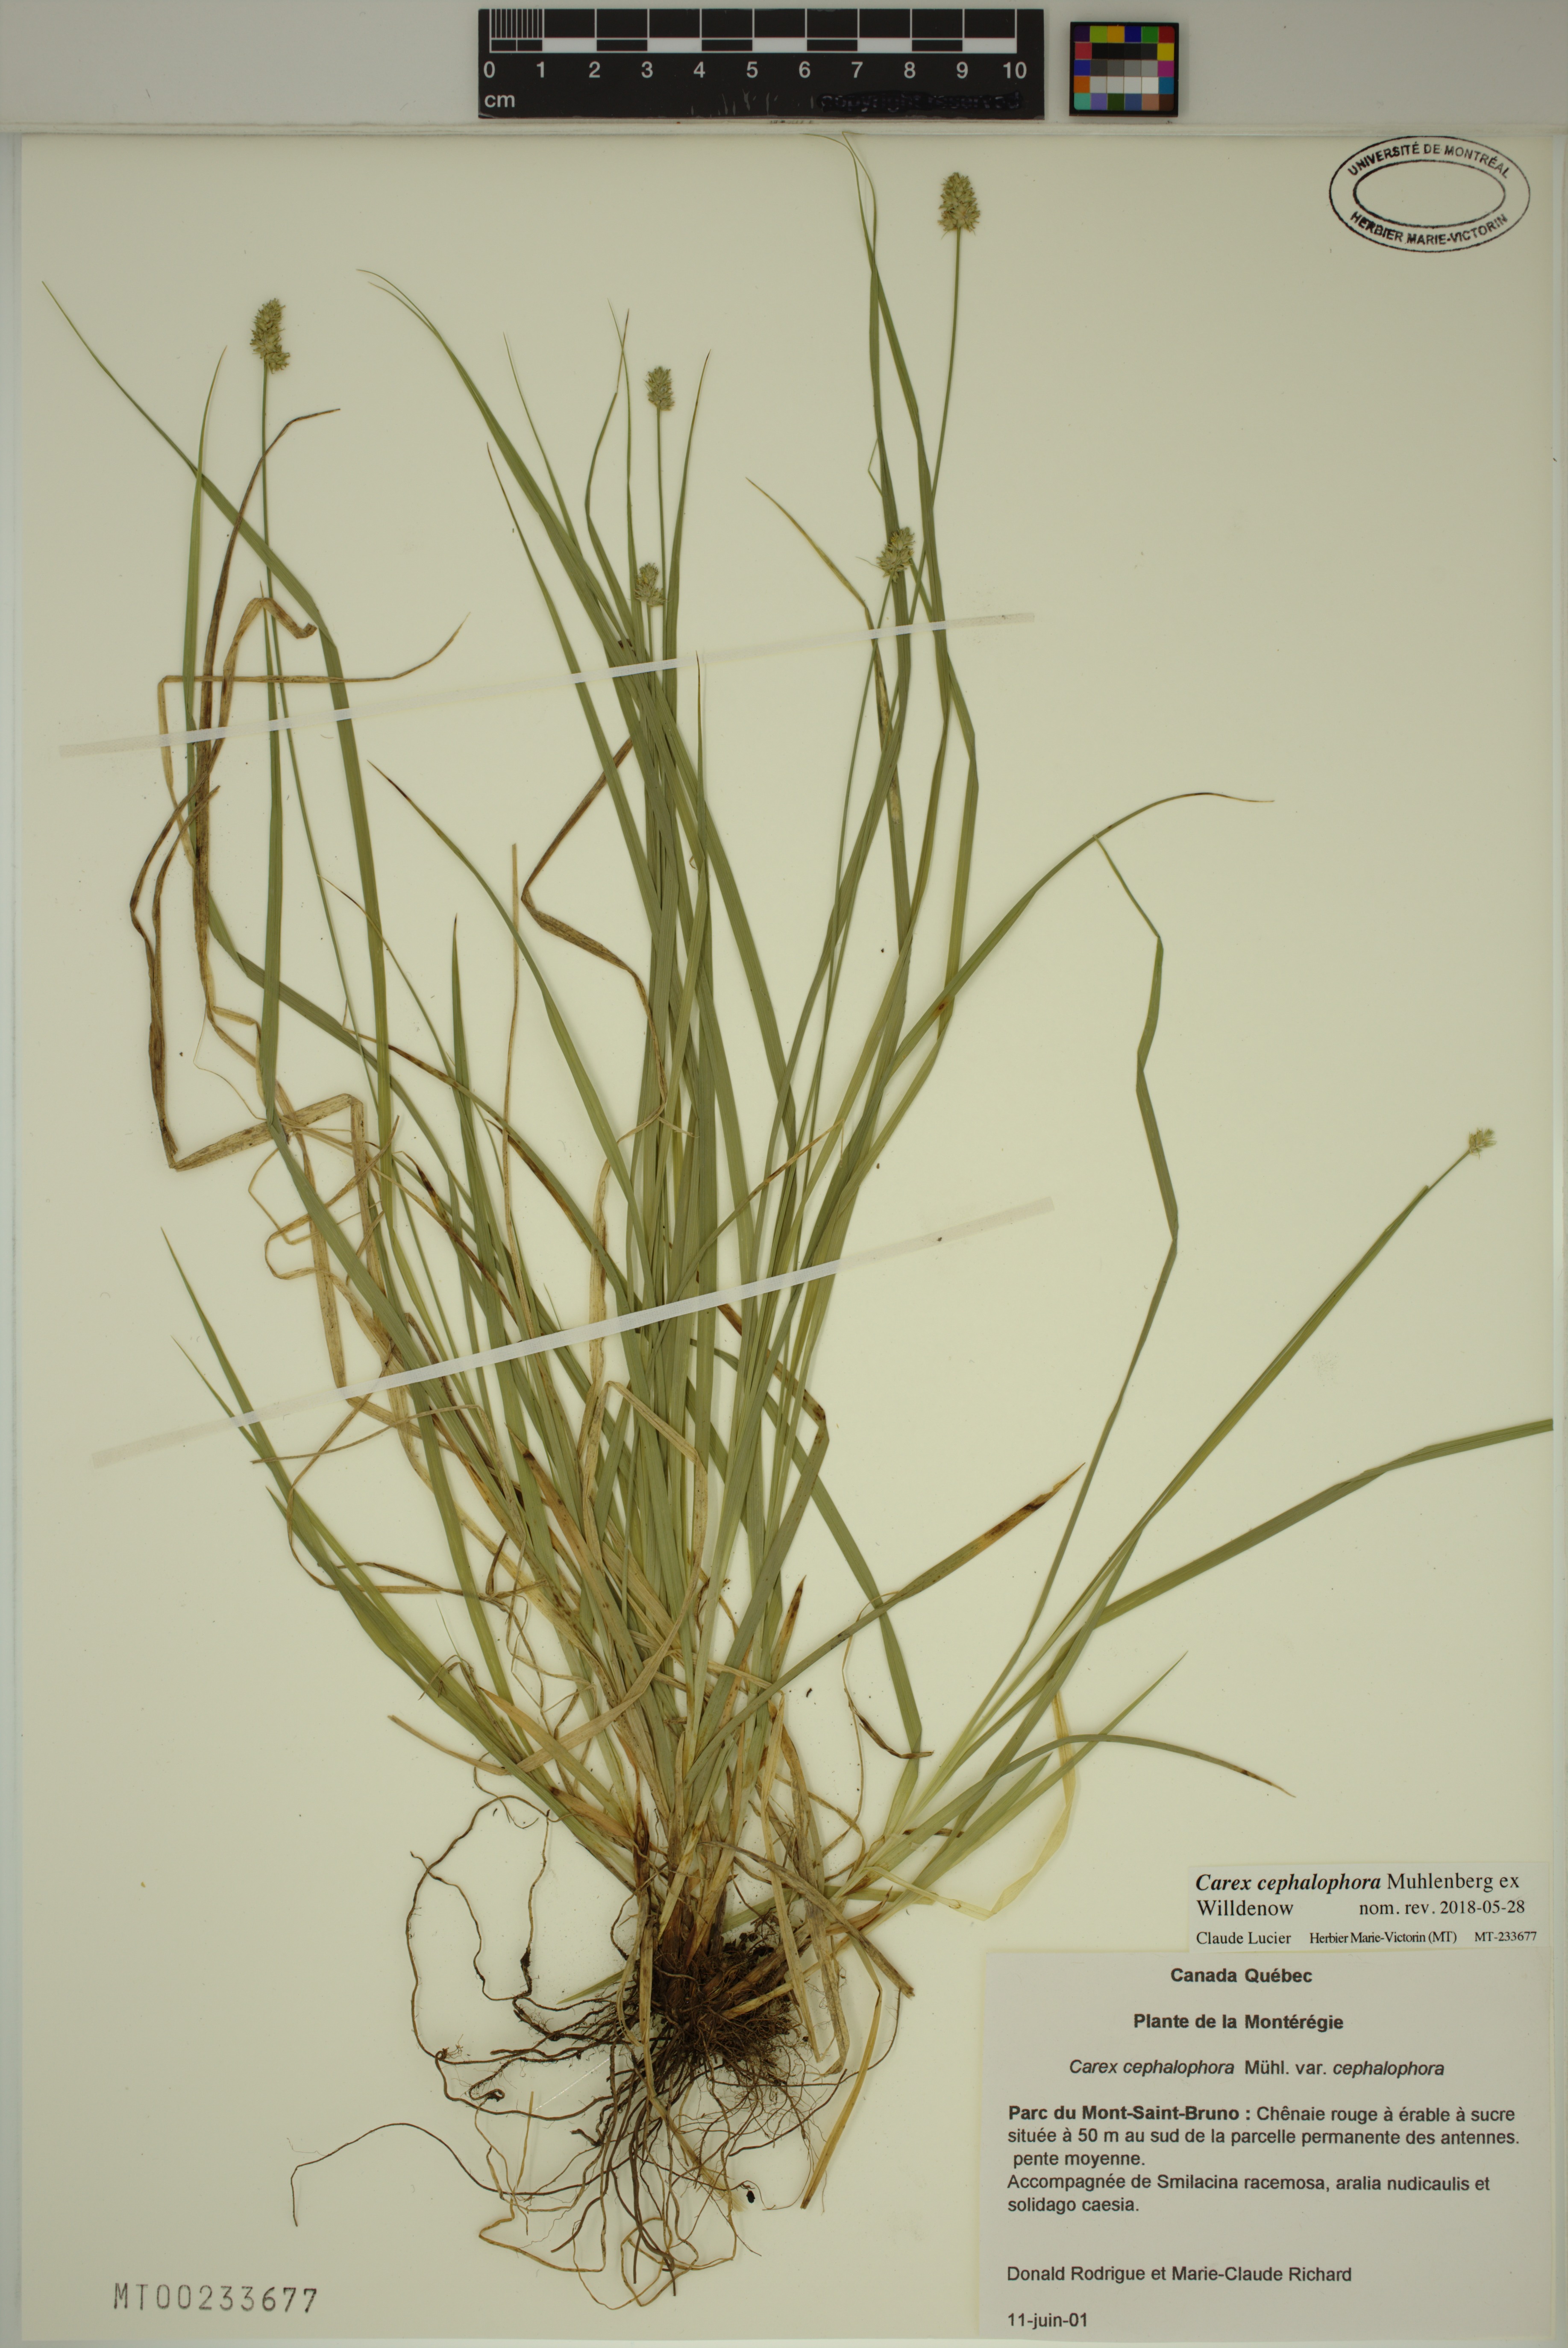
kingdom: Plantae
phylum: Tracheophyta
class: Liliopsida
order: Poales
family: Cyperaceae
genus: Carex
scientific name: Carex cephalophora
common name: Oval-headed sedge
